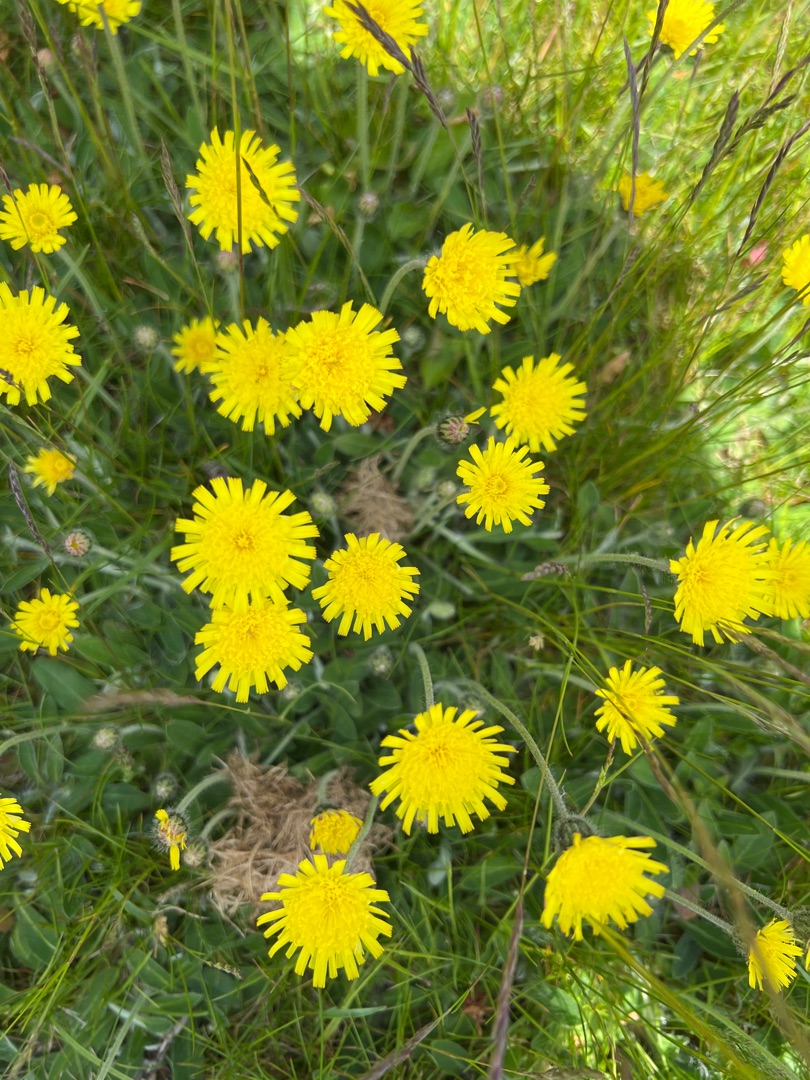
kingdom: Plantae
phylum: Tracheophyta
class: Magnoliopsida
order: Asterales
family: Asteraceae
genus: Pilosella
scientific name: Pilosella officinarum
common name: Håret høgeurt
